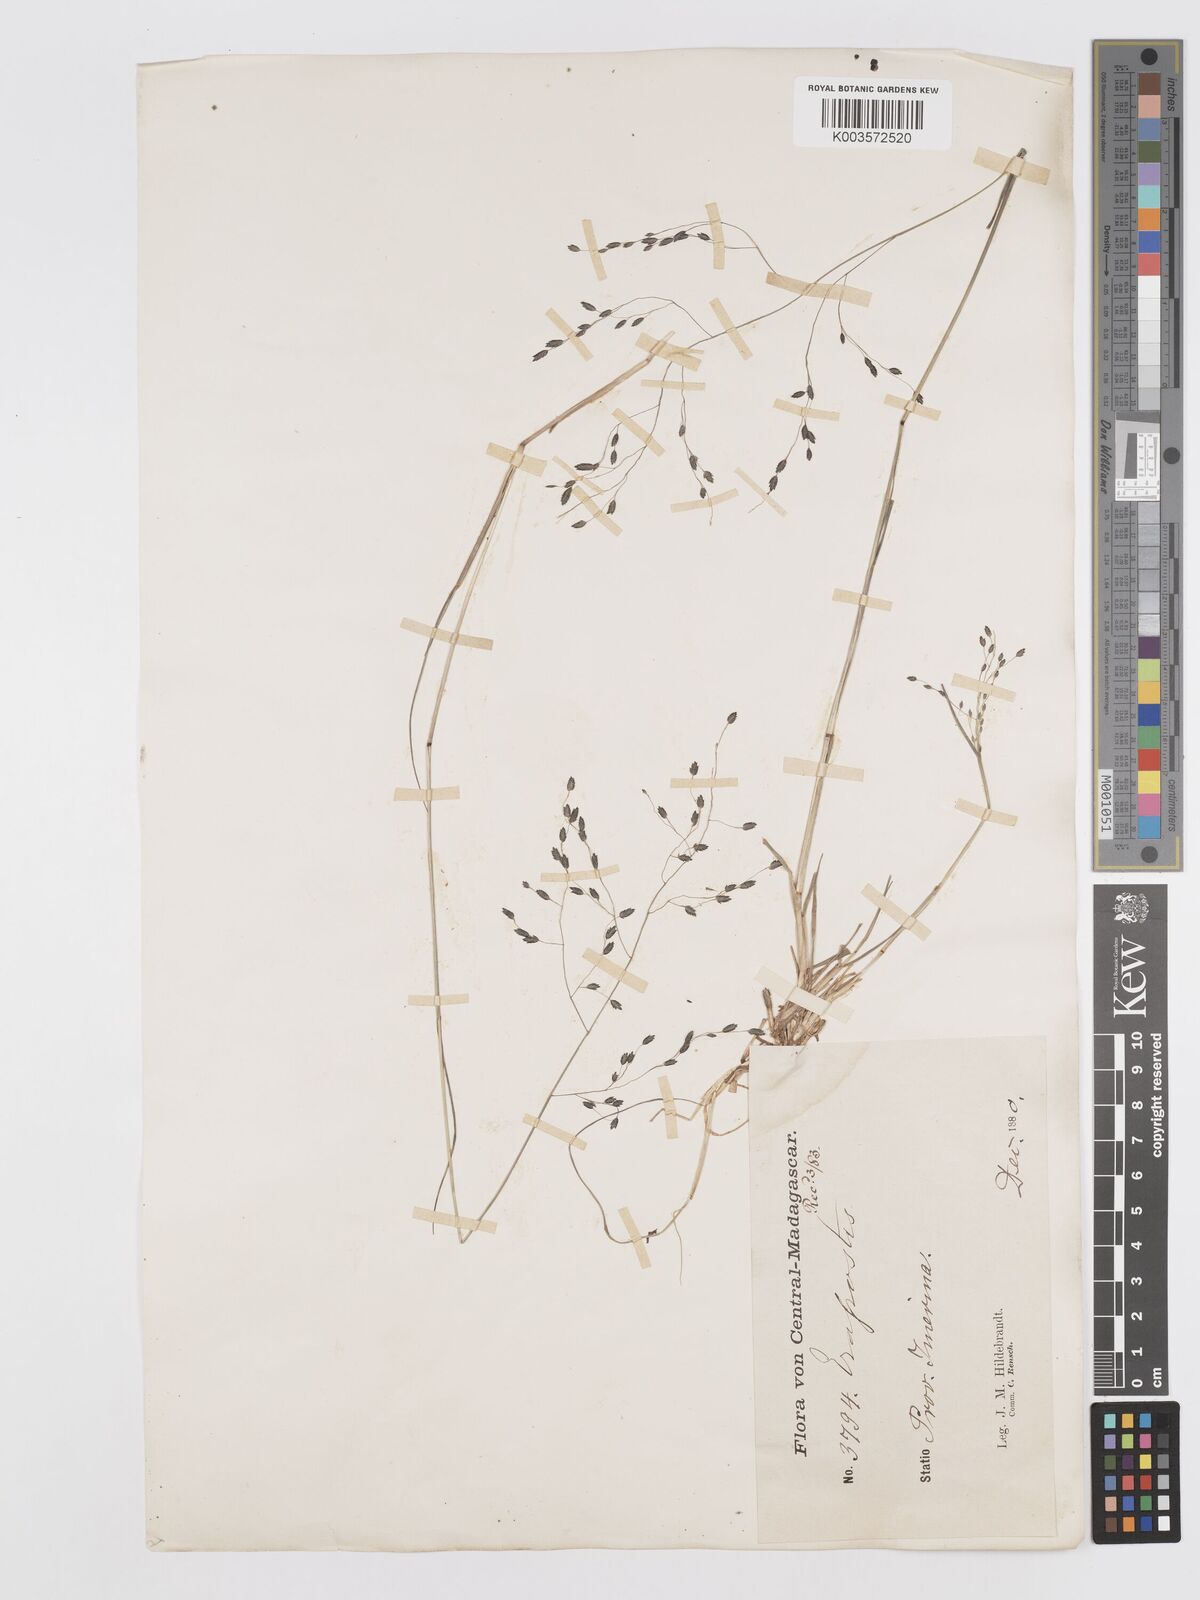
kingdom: Plantae
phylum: Tracheophyta
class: Liliopsida
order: Poales
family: Poaceae
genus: Eragrostis
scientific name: Eragrostis hildebrandtii
